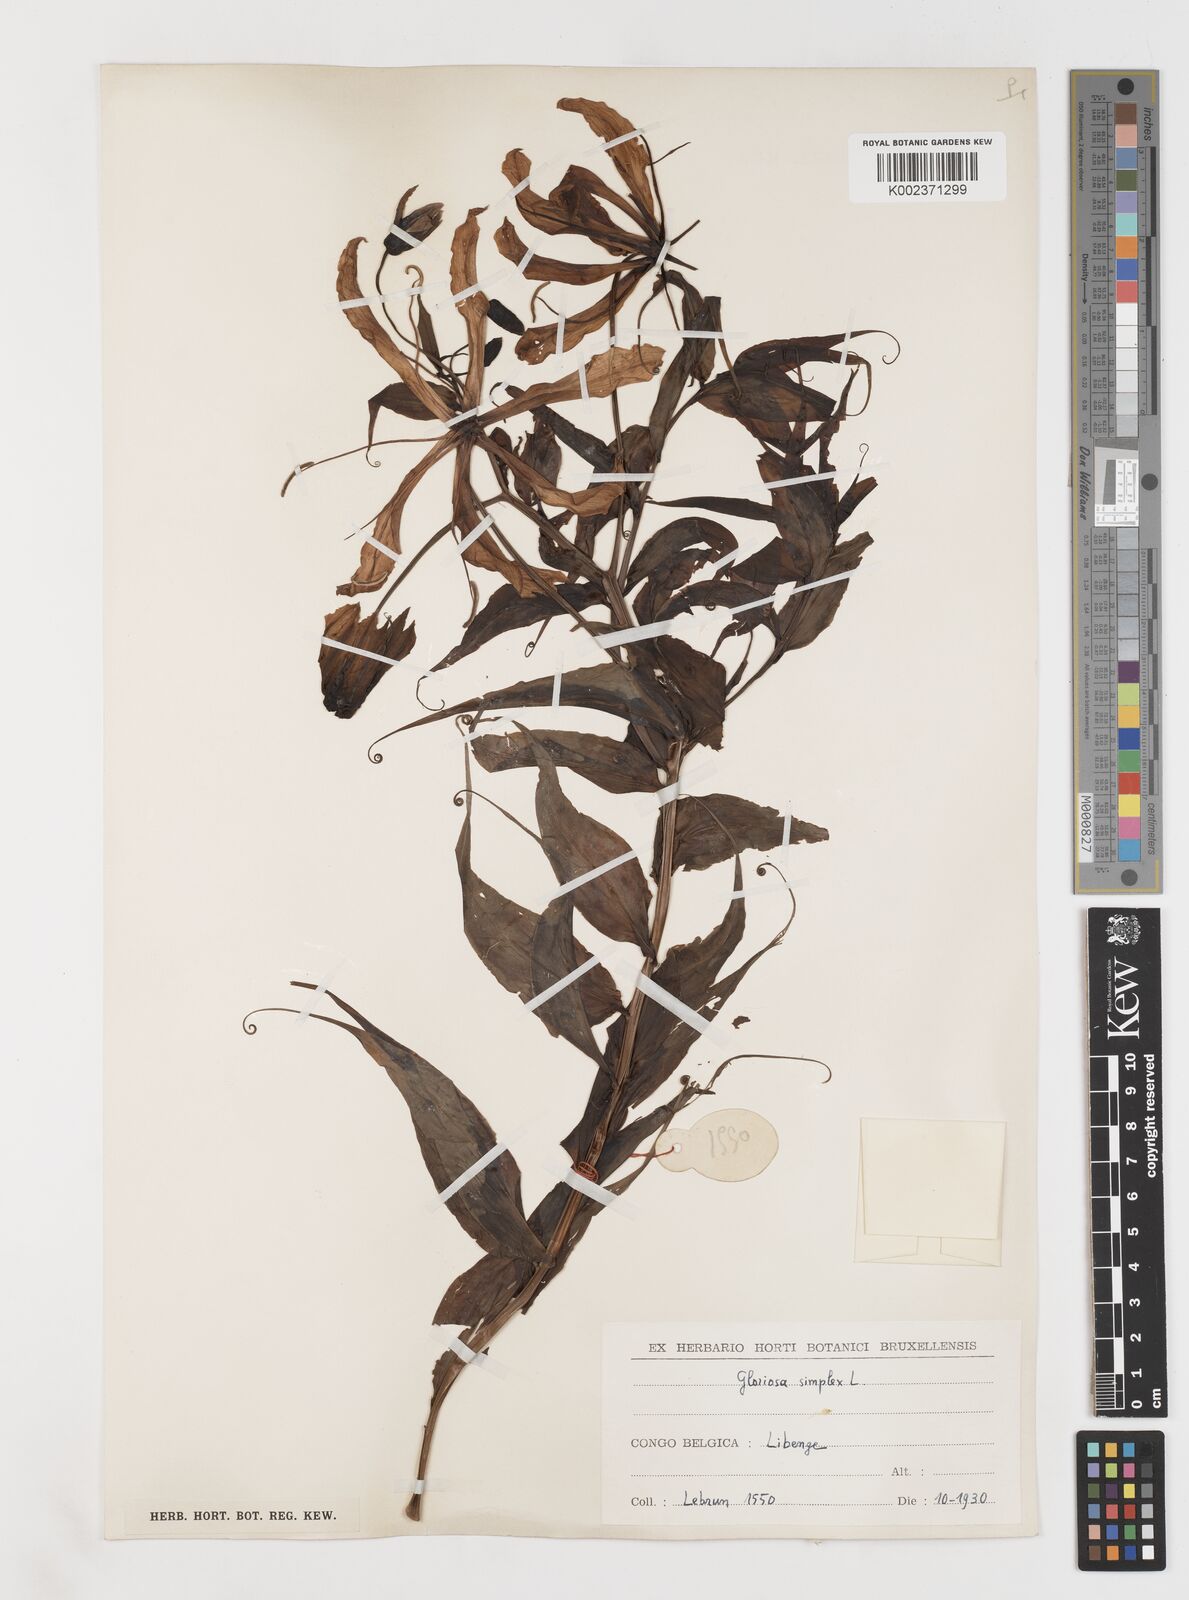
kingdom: Plantae
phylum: Tracheophyta
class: Liliopsida
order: Liliales
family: Colchicaceae
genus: Gloriosa
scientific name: Gloriosa simplex
